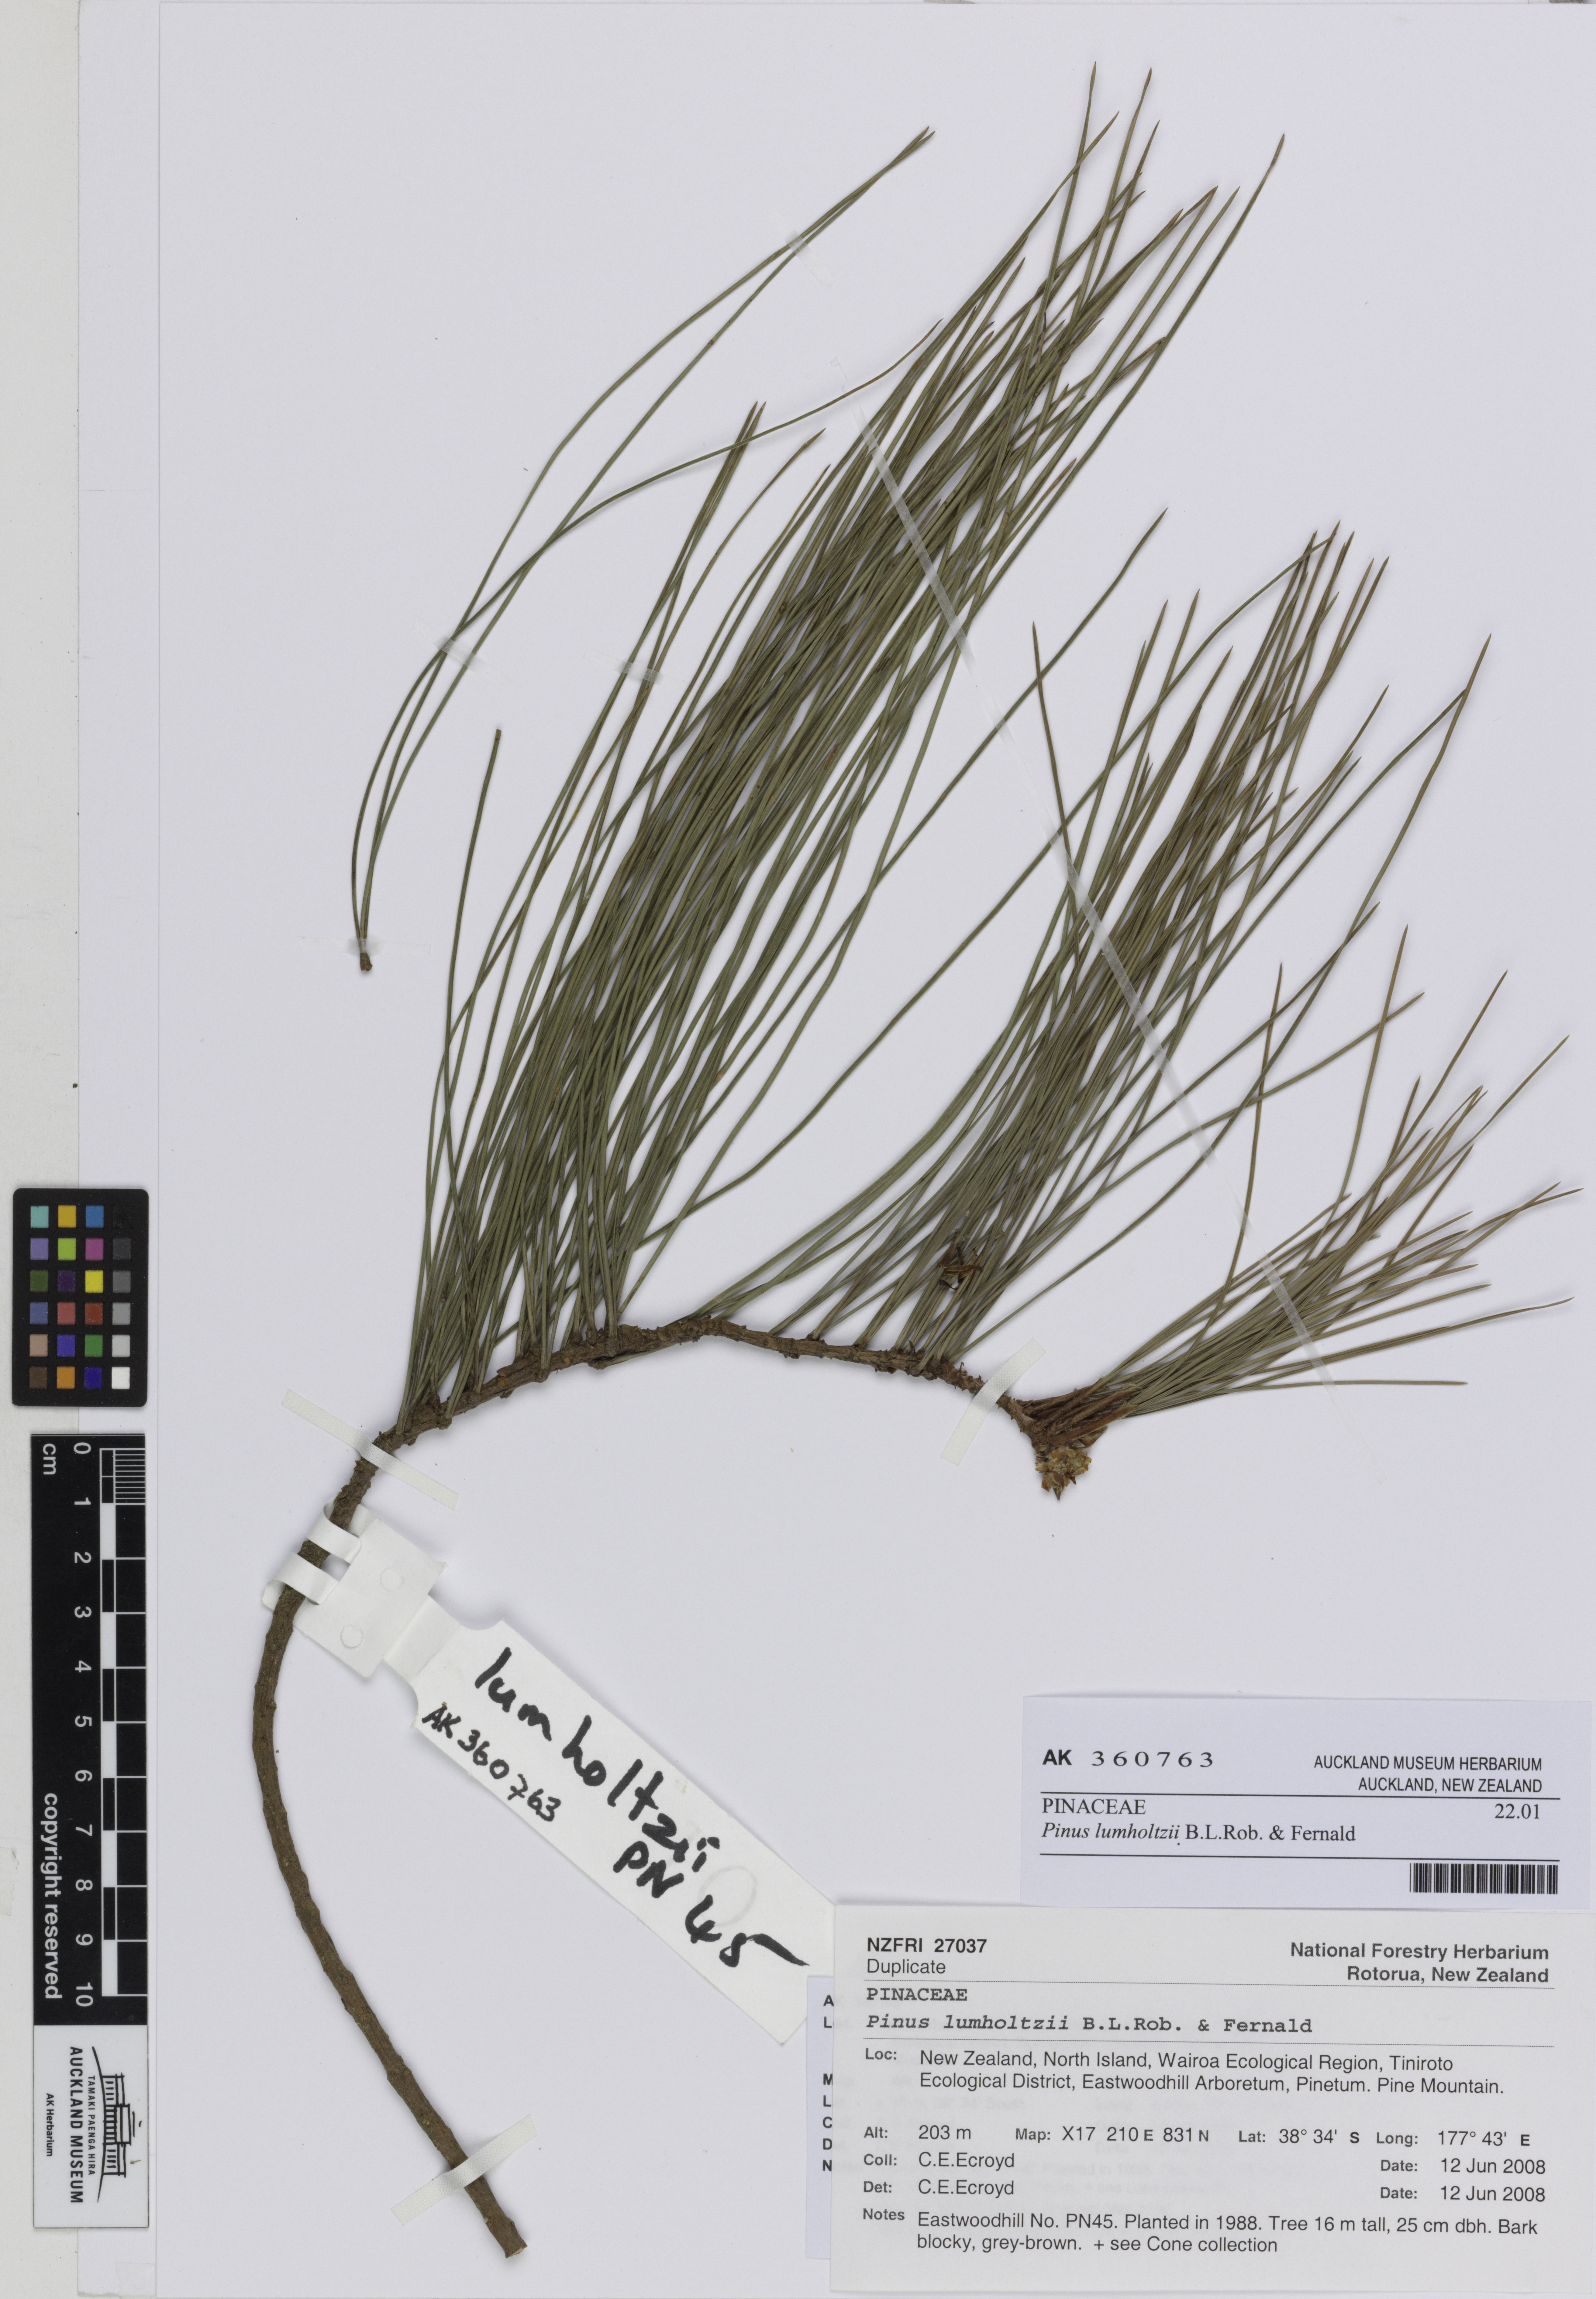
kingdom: Plantae
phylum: Tracheophyta
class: Pinopsida
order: Pinales
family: Pinaceae
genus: Pinus
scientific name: Pinus lumholtzii
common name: Lumholtz's pine
